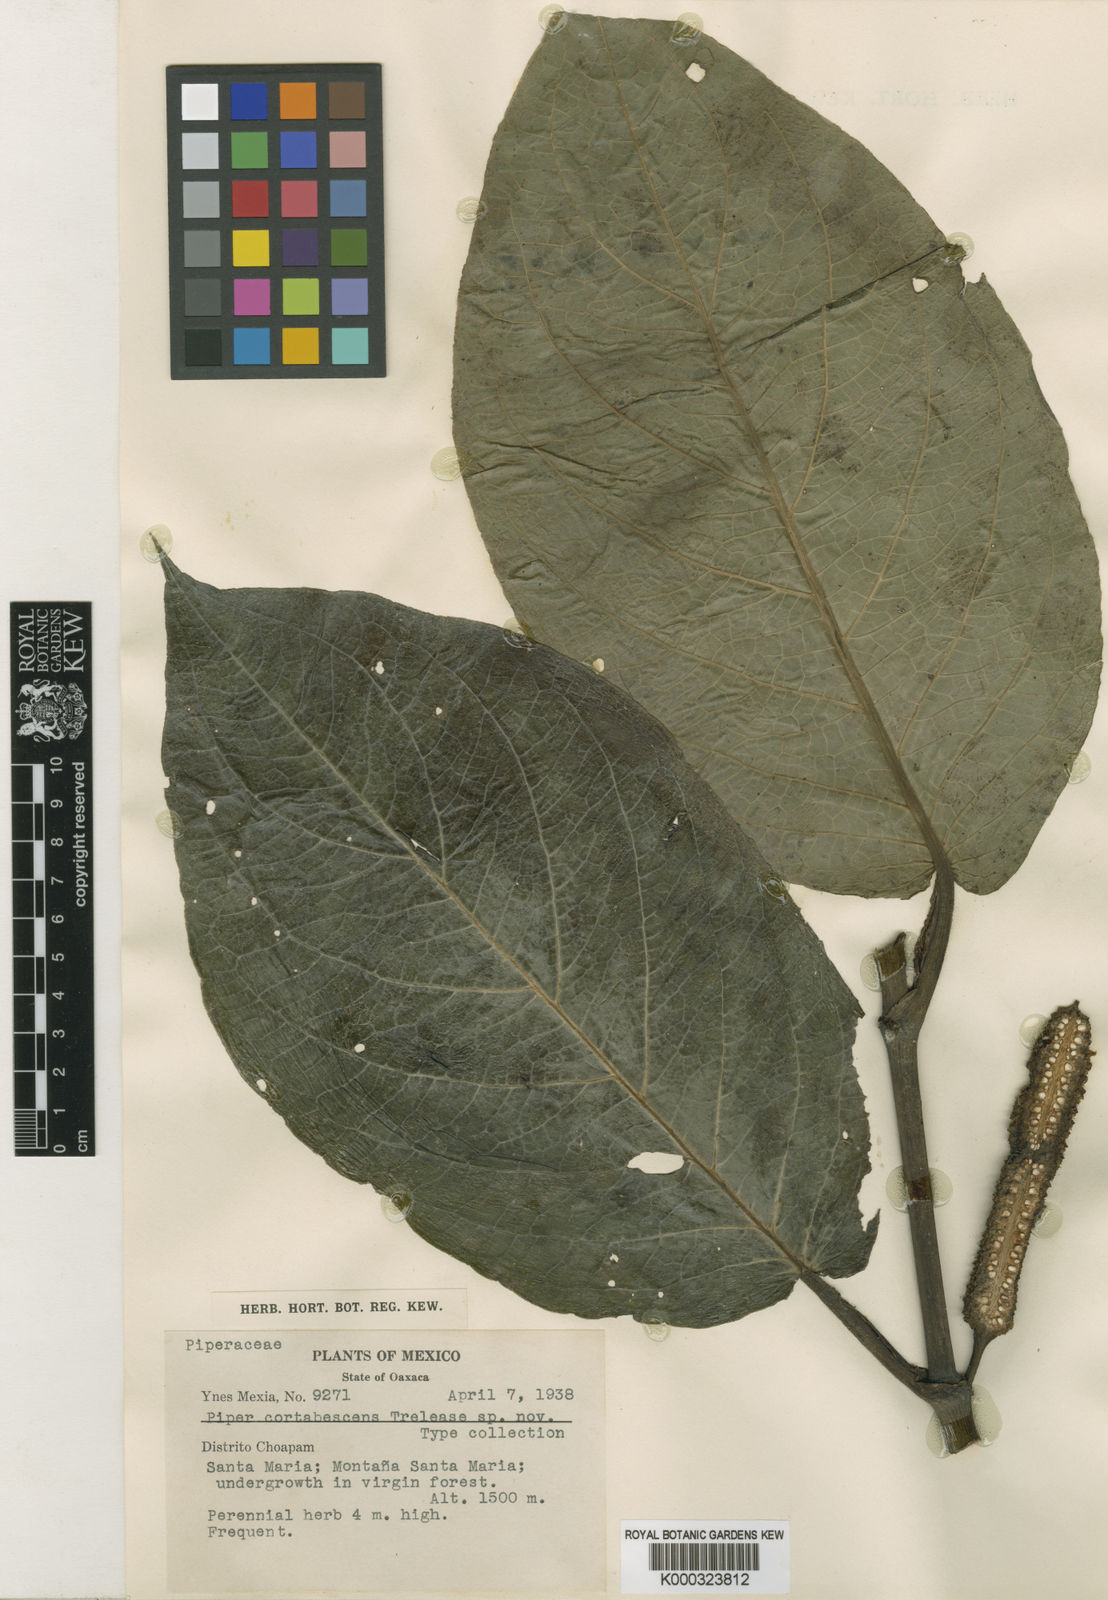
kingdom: Plantae
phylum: Tracheophyta
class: Magnoliopsida
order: Piperales
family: Piperaceae
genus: Piper
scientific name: Piper
